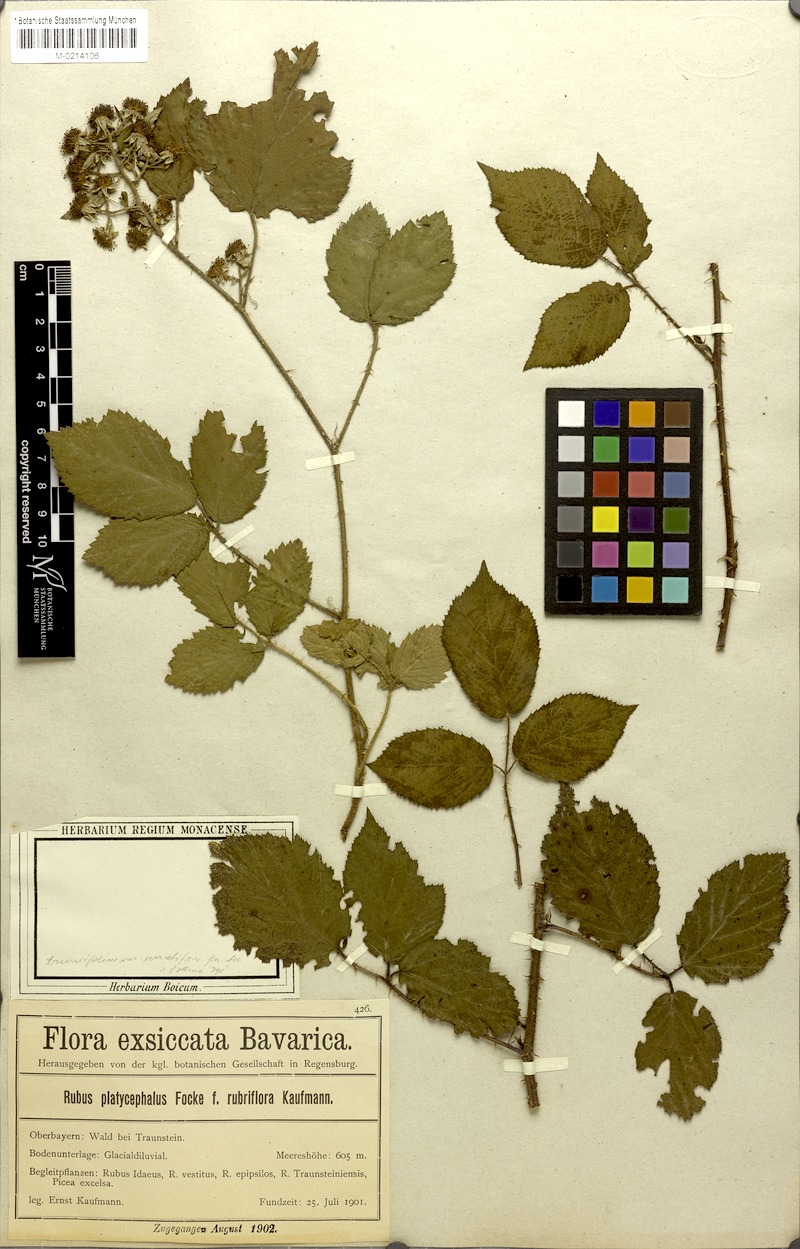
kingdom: Plantae
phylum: Tracheophyta
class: Magnoliopsida
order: Rosales
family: Rosaceae
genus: Rubus
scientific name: Rubus
